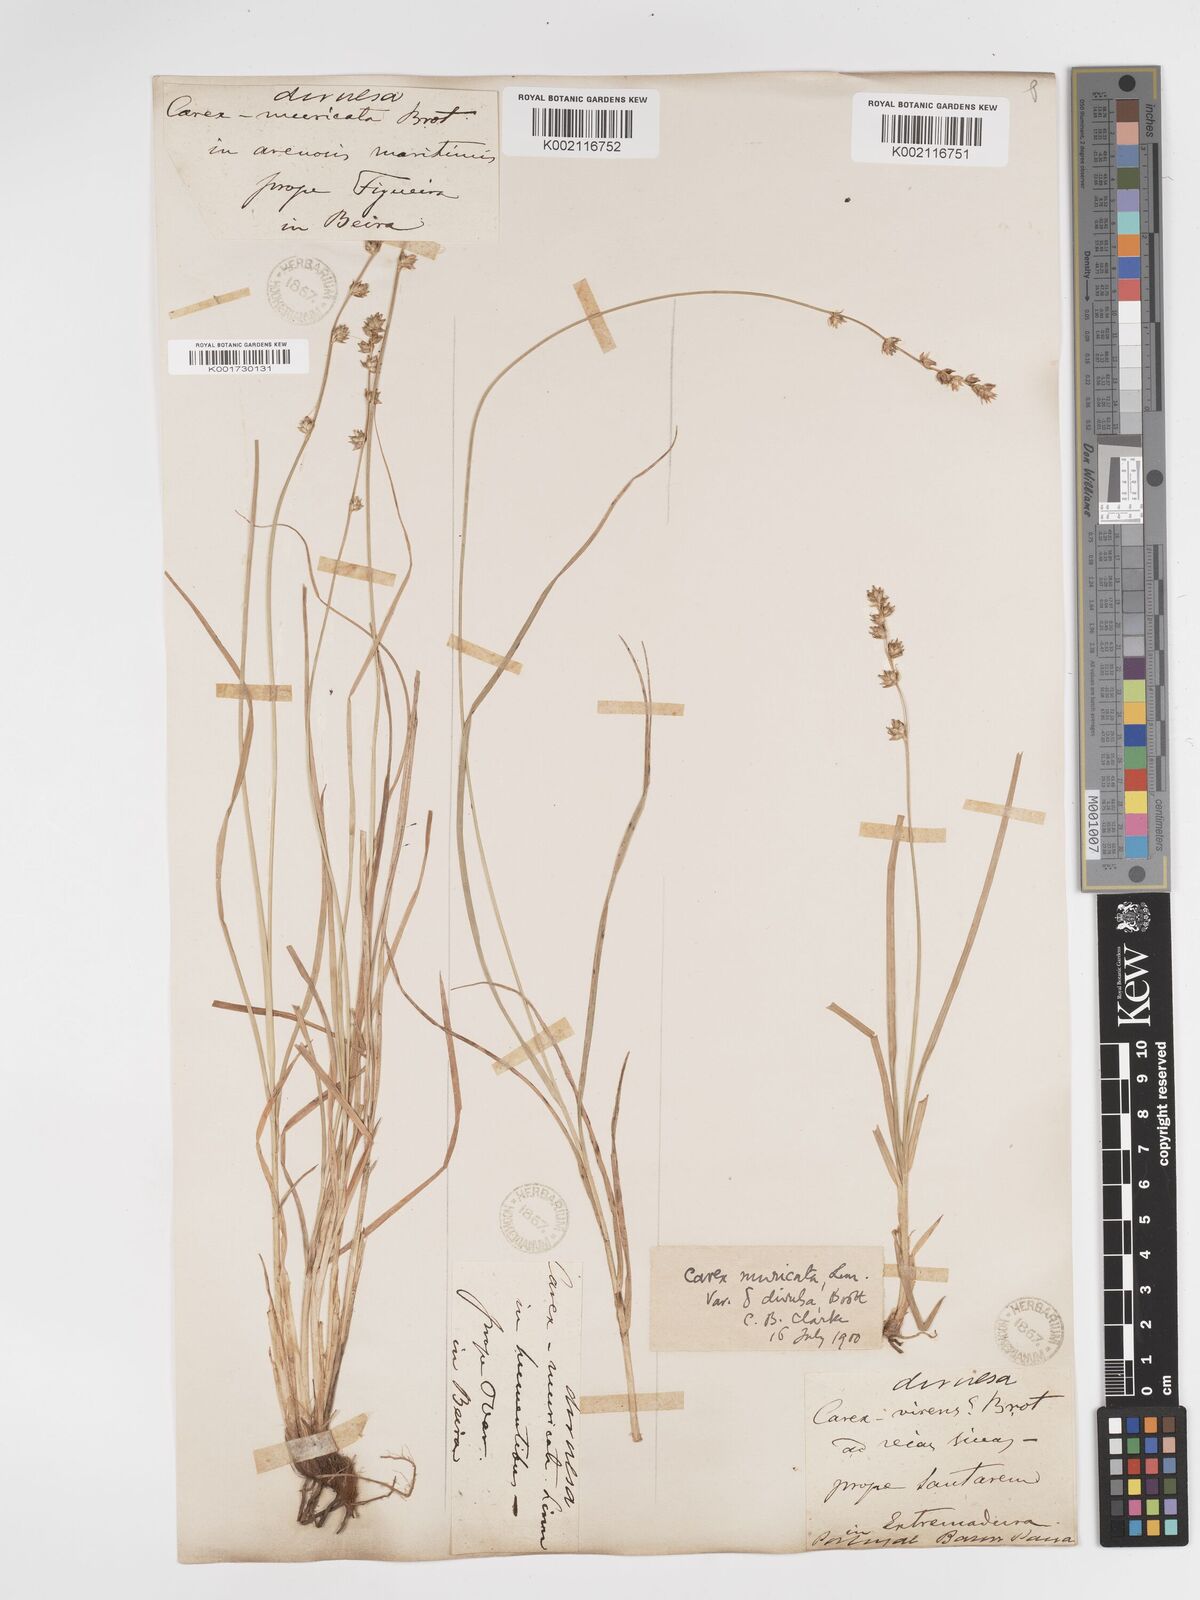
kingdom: Plantae
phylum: Tracheophyta
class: Liliopsida
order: Poales
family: Cyperaceae
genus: Carex
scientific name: Carex divulsa
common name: Grassland sedge
